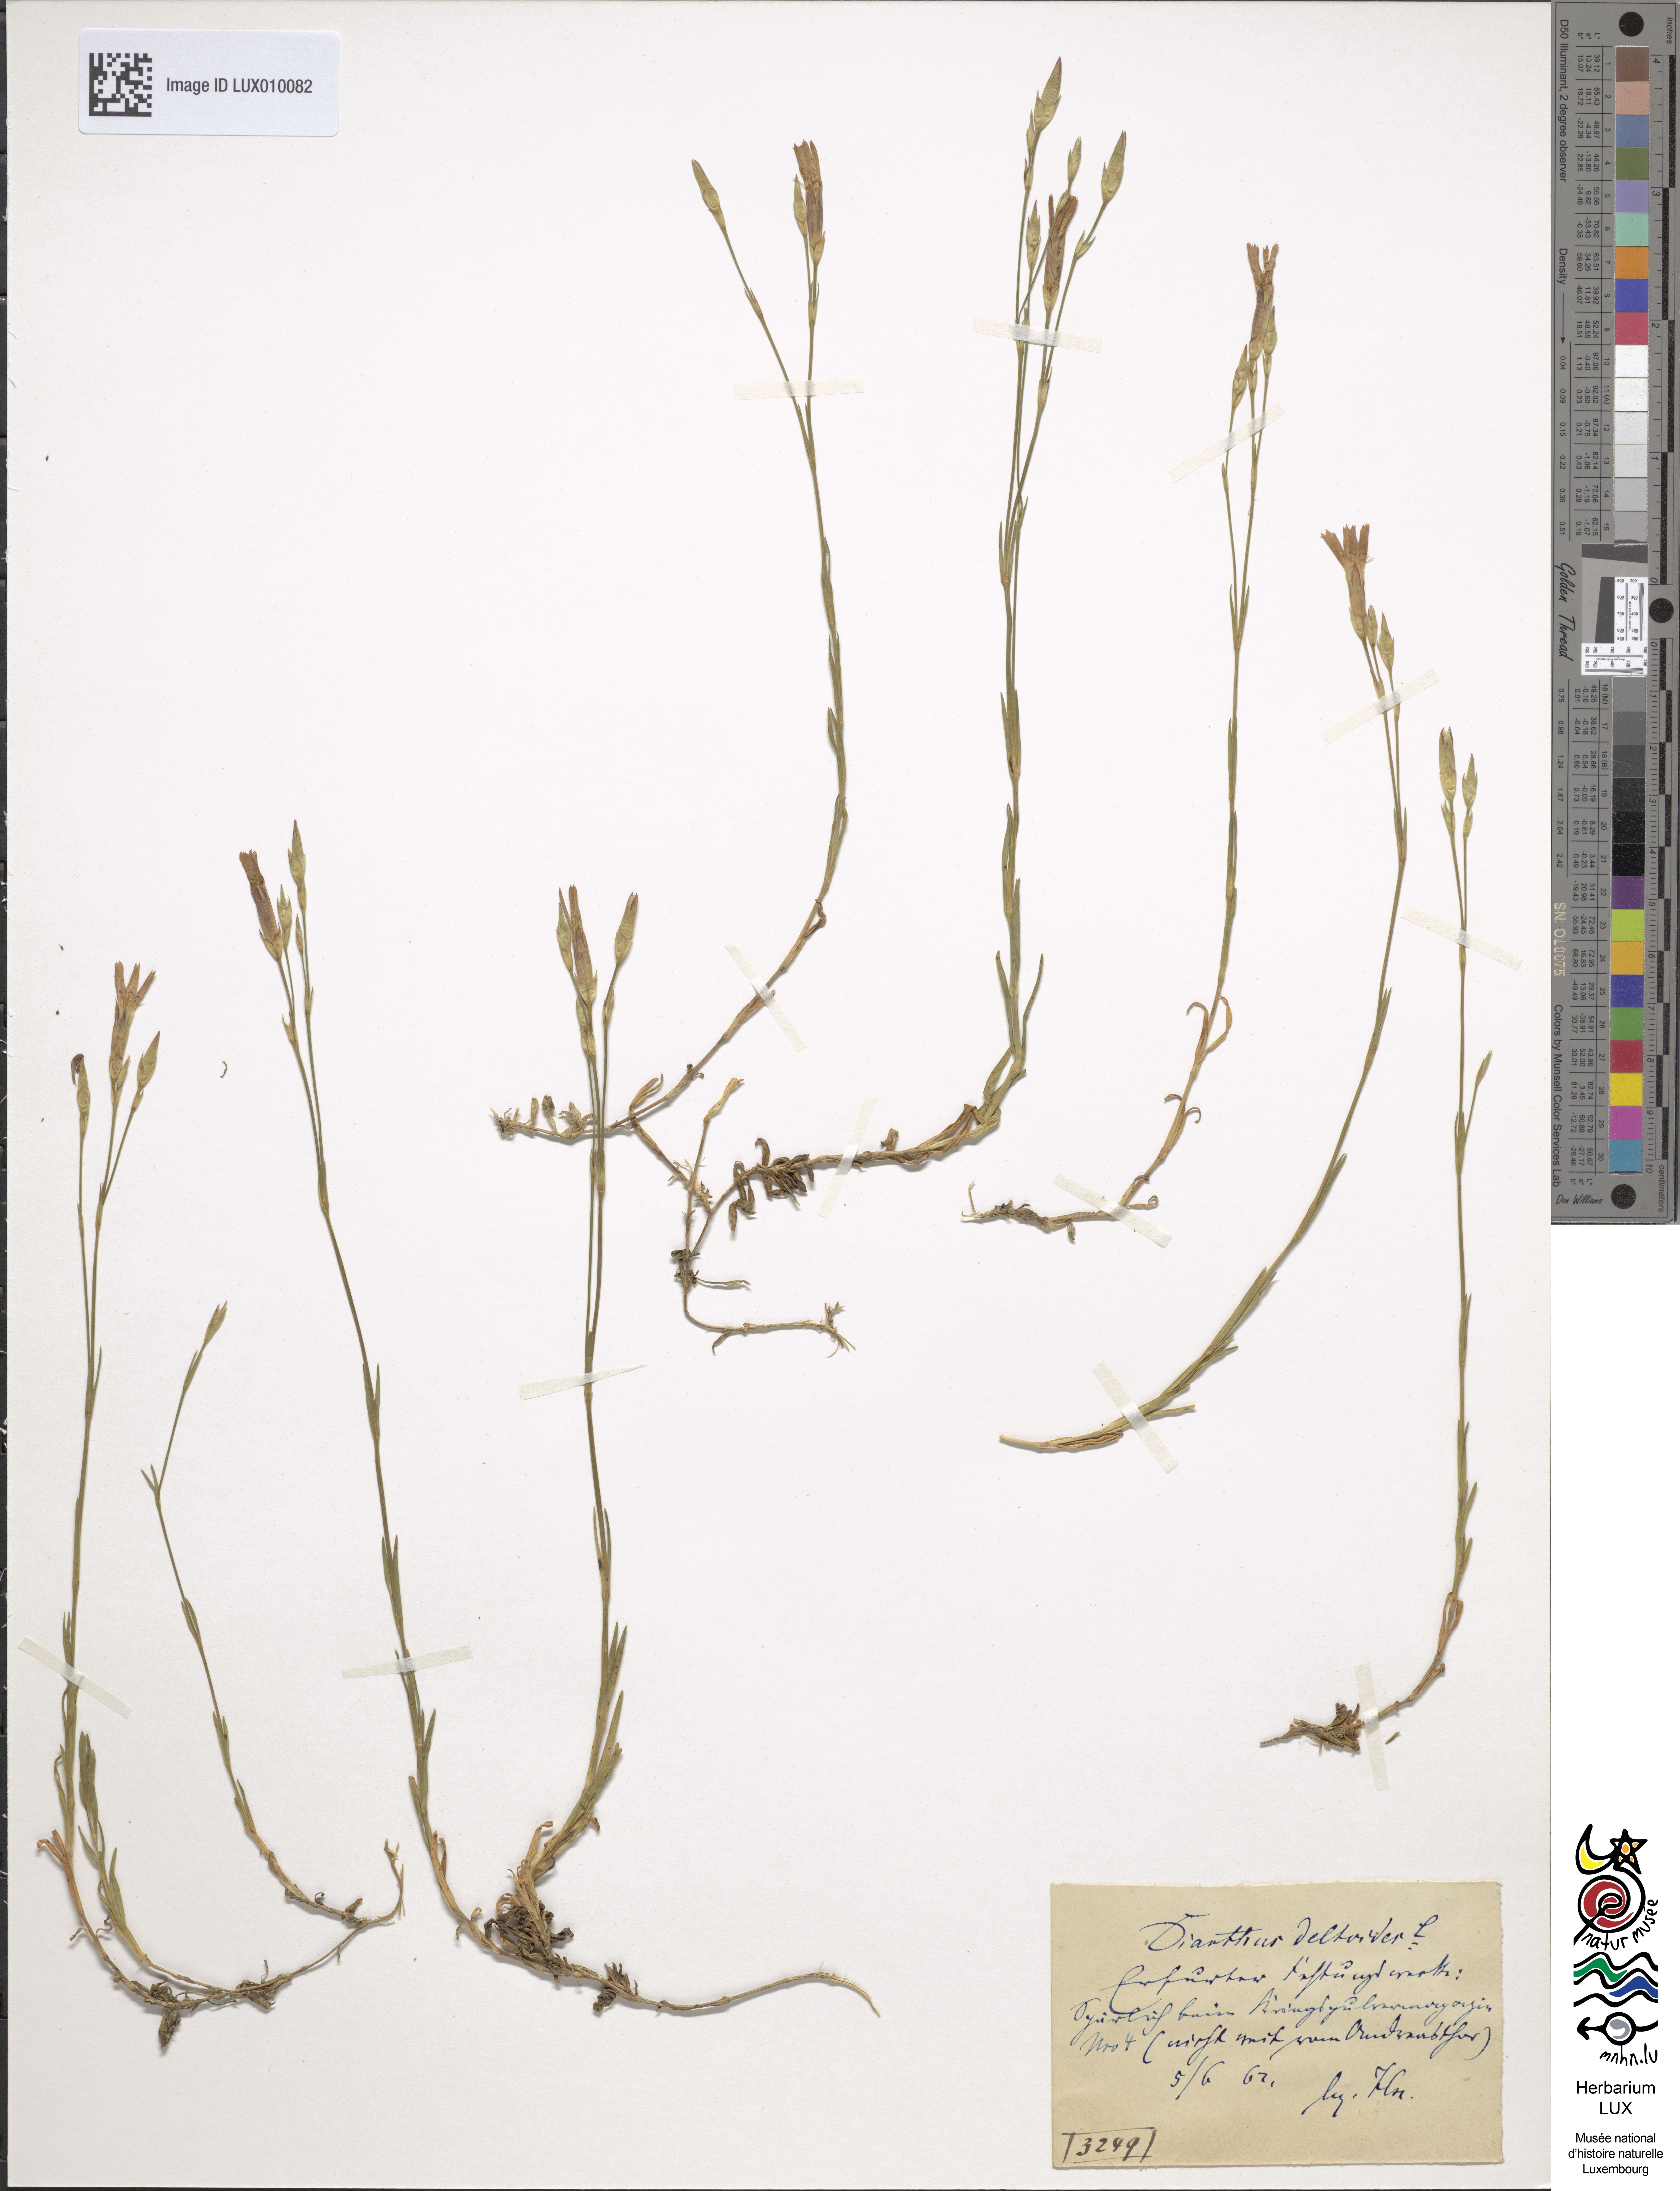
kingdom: Plantae
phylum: Tracheophyta
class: Magnoliopsida
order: Caryophyllales
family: Caryophyllaceae
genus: Dianthus
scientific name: Dianthus deltoides
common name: Maiden pink
